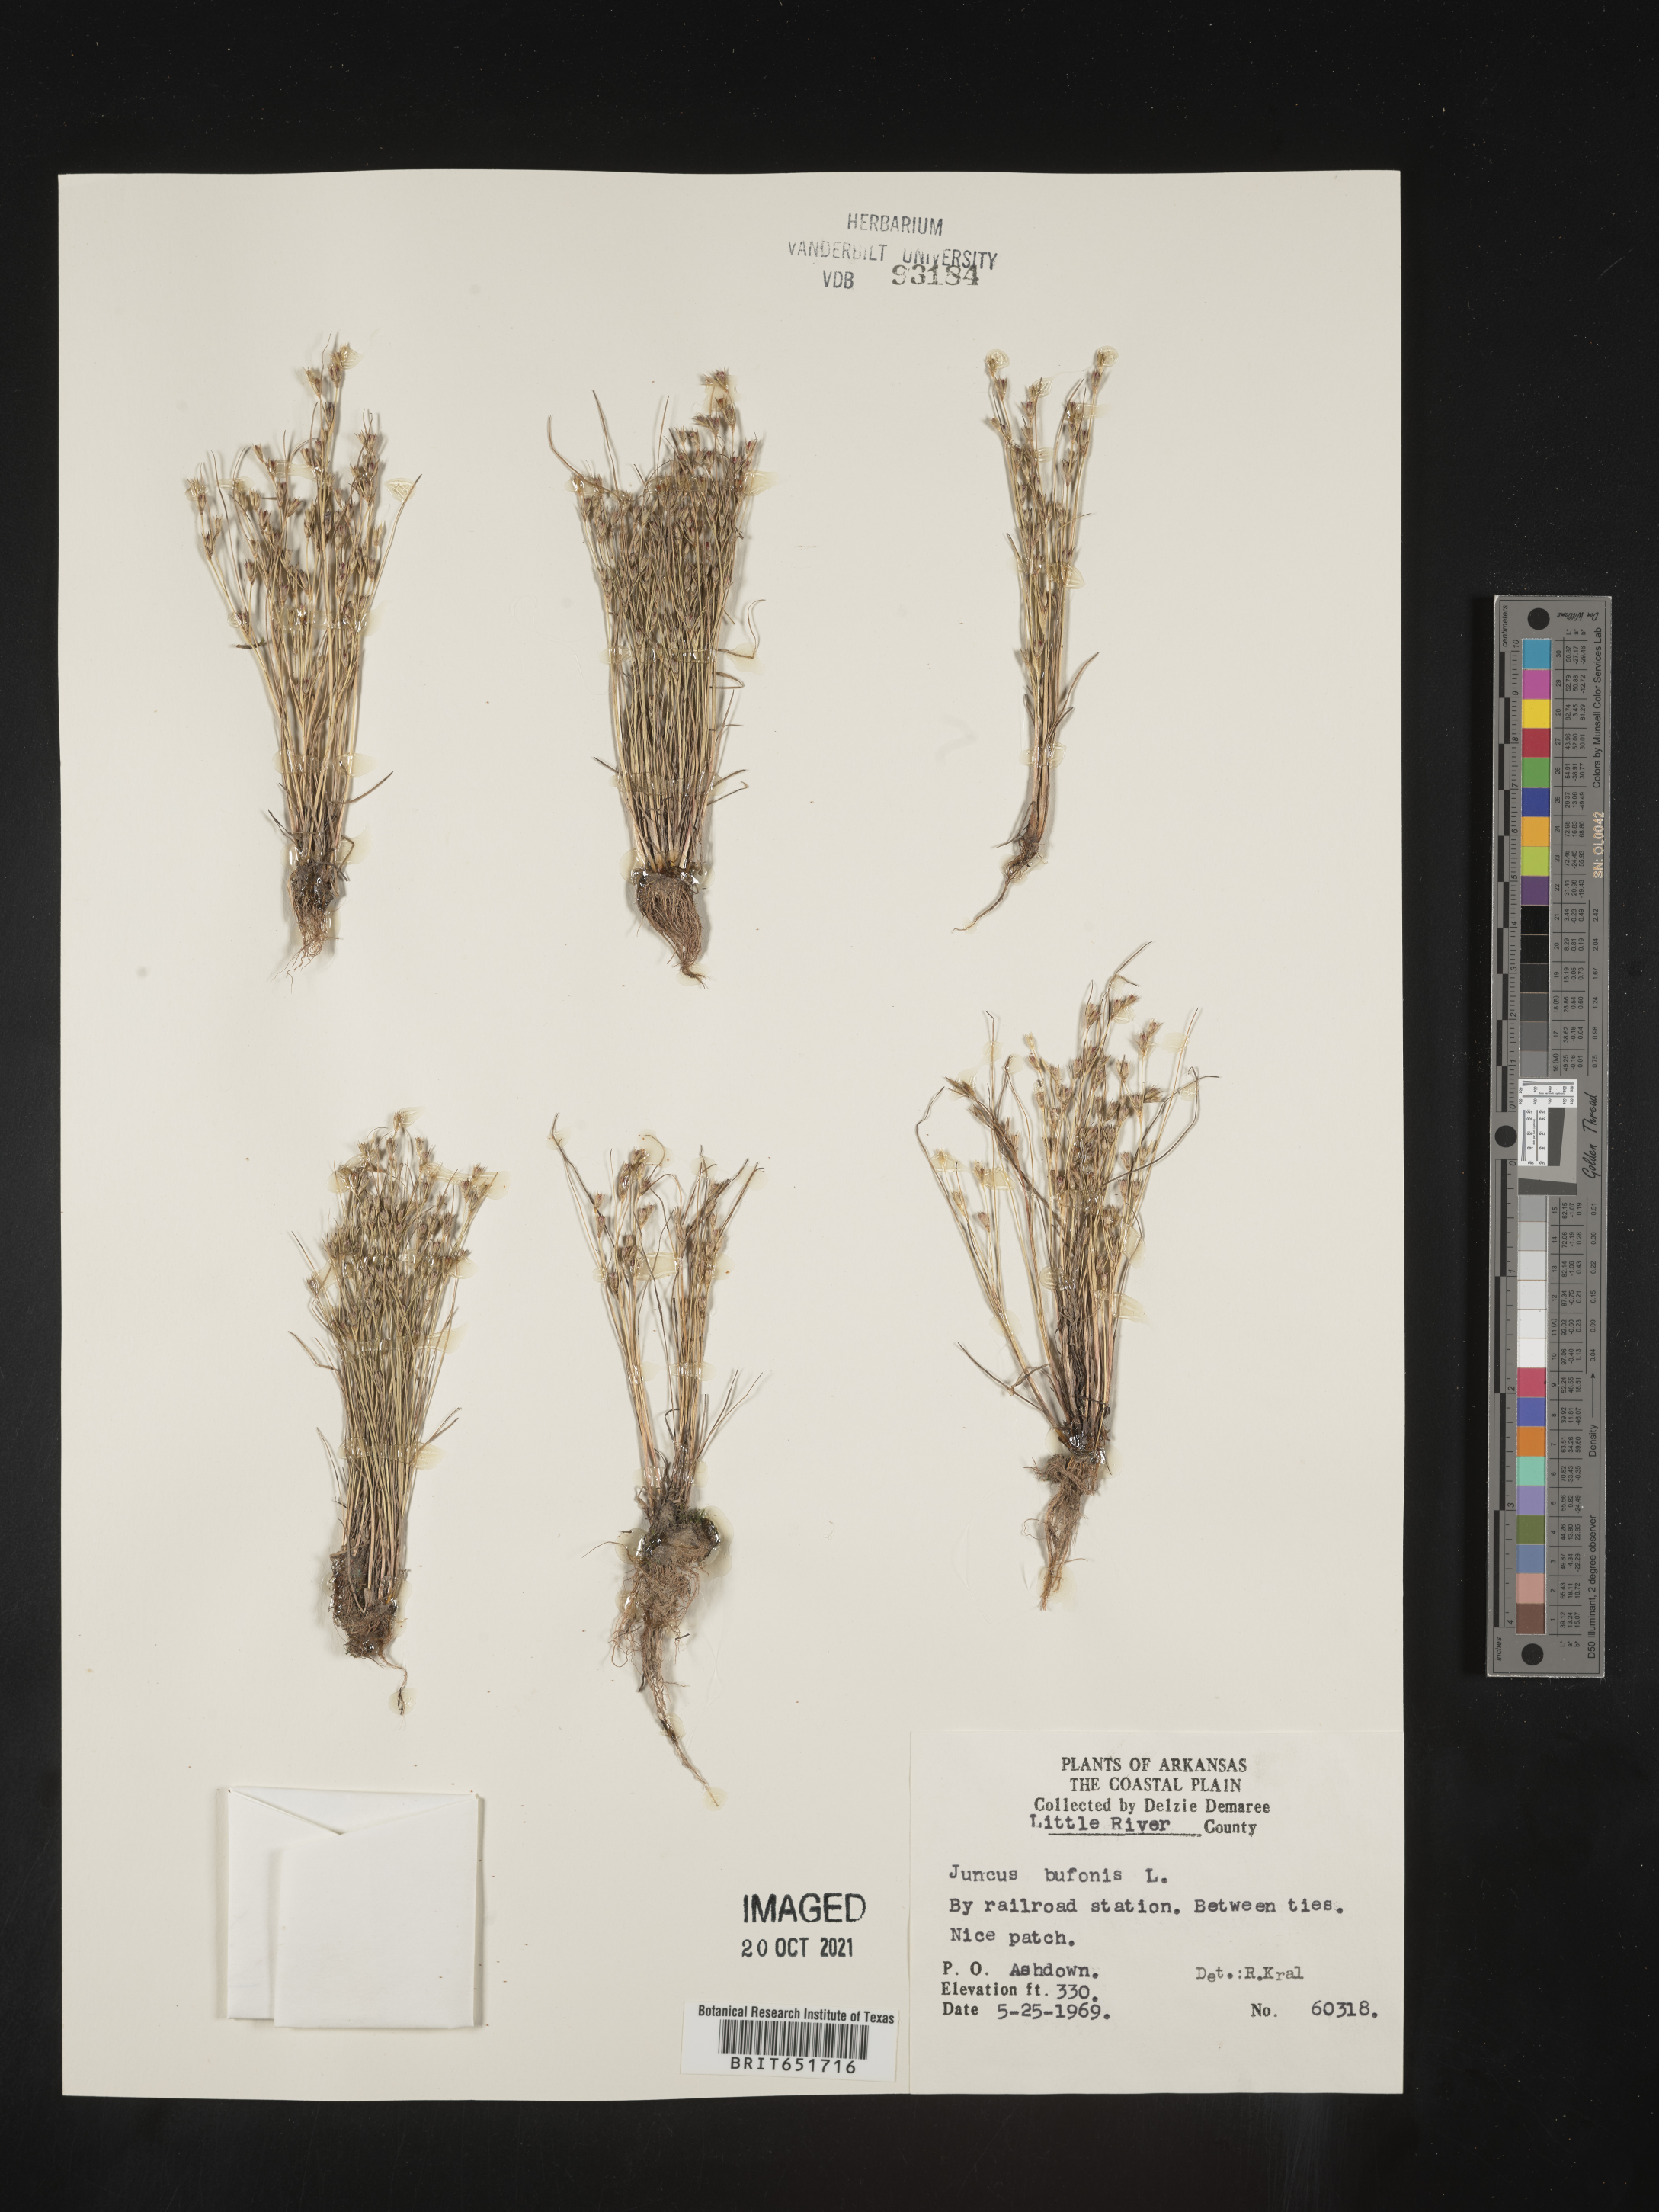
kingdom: Plantae
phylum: Tracheophyta
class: Liliopsida
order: Poales
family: Juncaceae
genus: Juncus
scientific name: Juncus bufonius
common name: Toad rush
